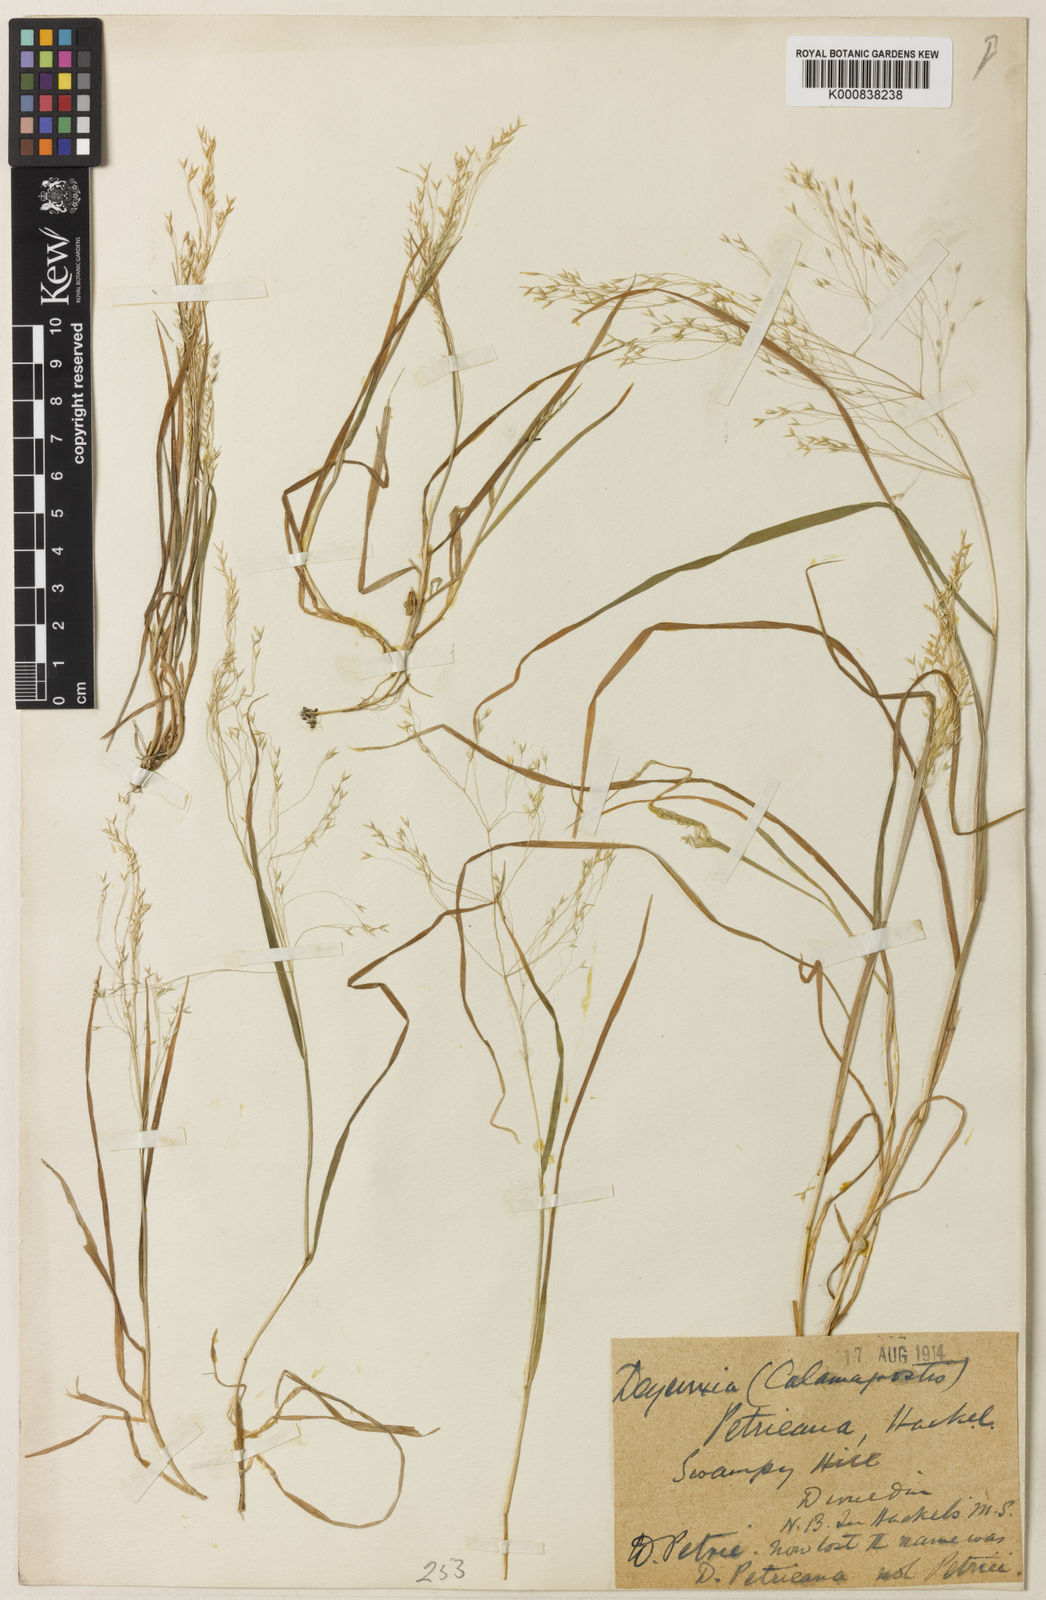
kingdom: Plantae
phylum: Tracheophyta
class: Liliopsida
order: Poales
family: Poaceae
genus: Agrostis
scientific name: Agrostis
